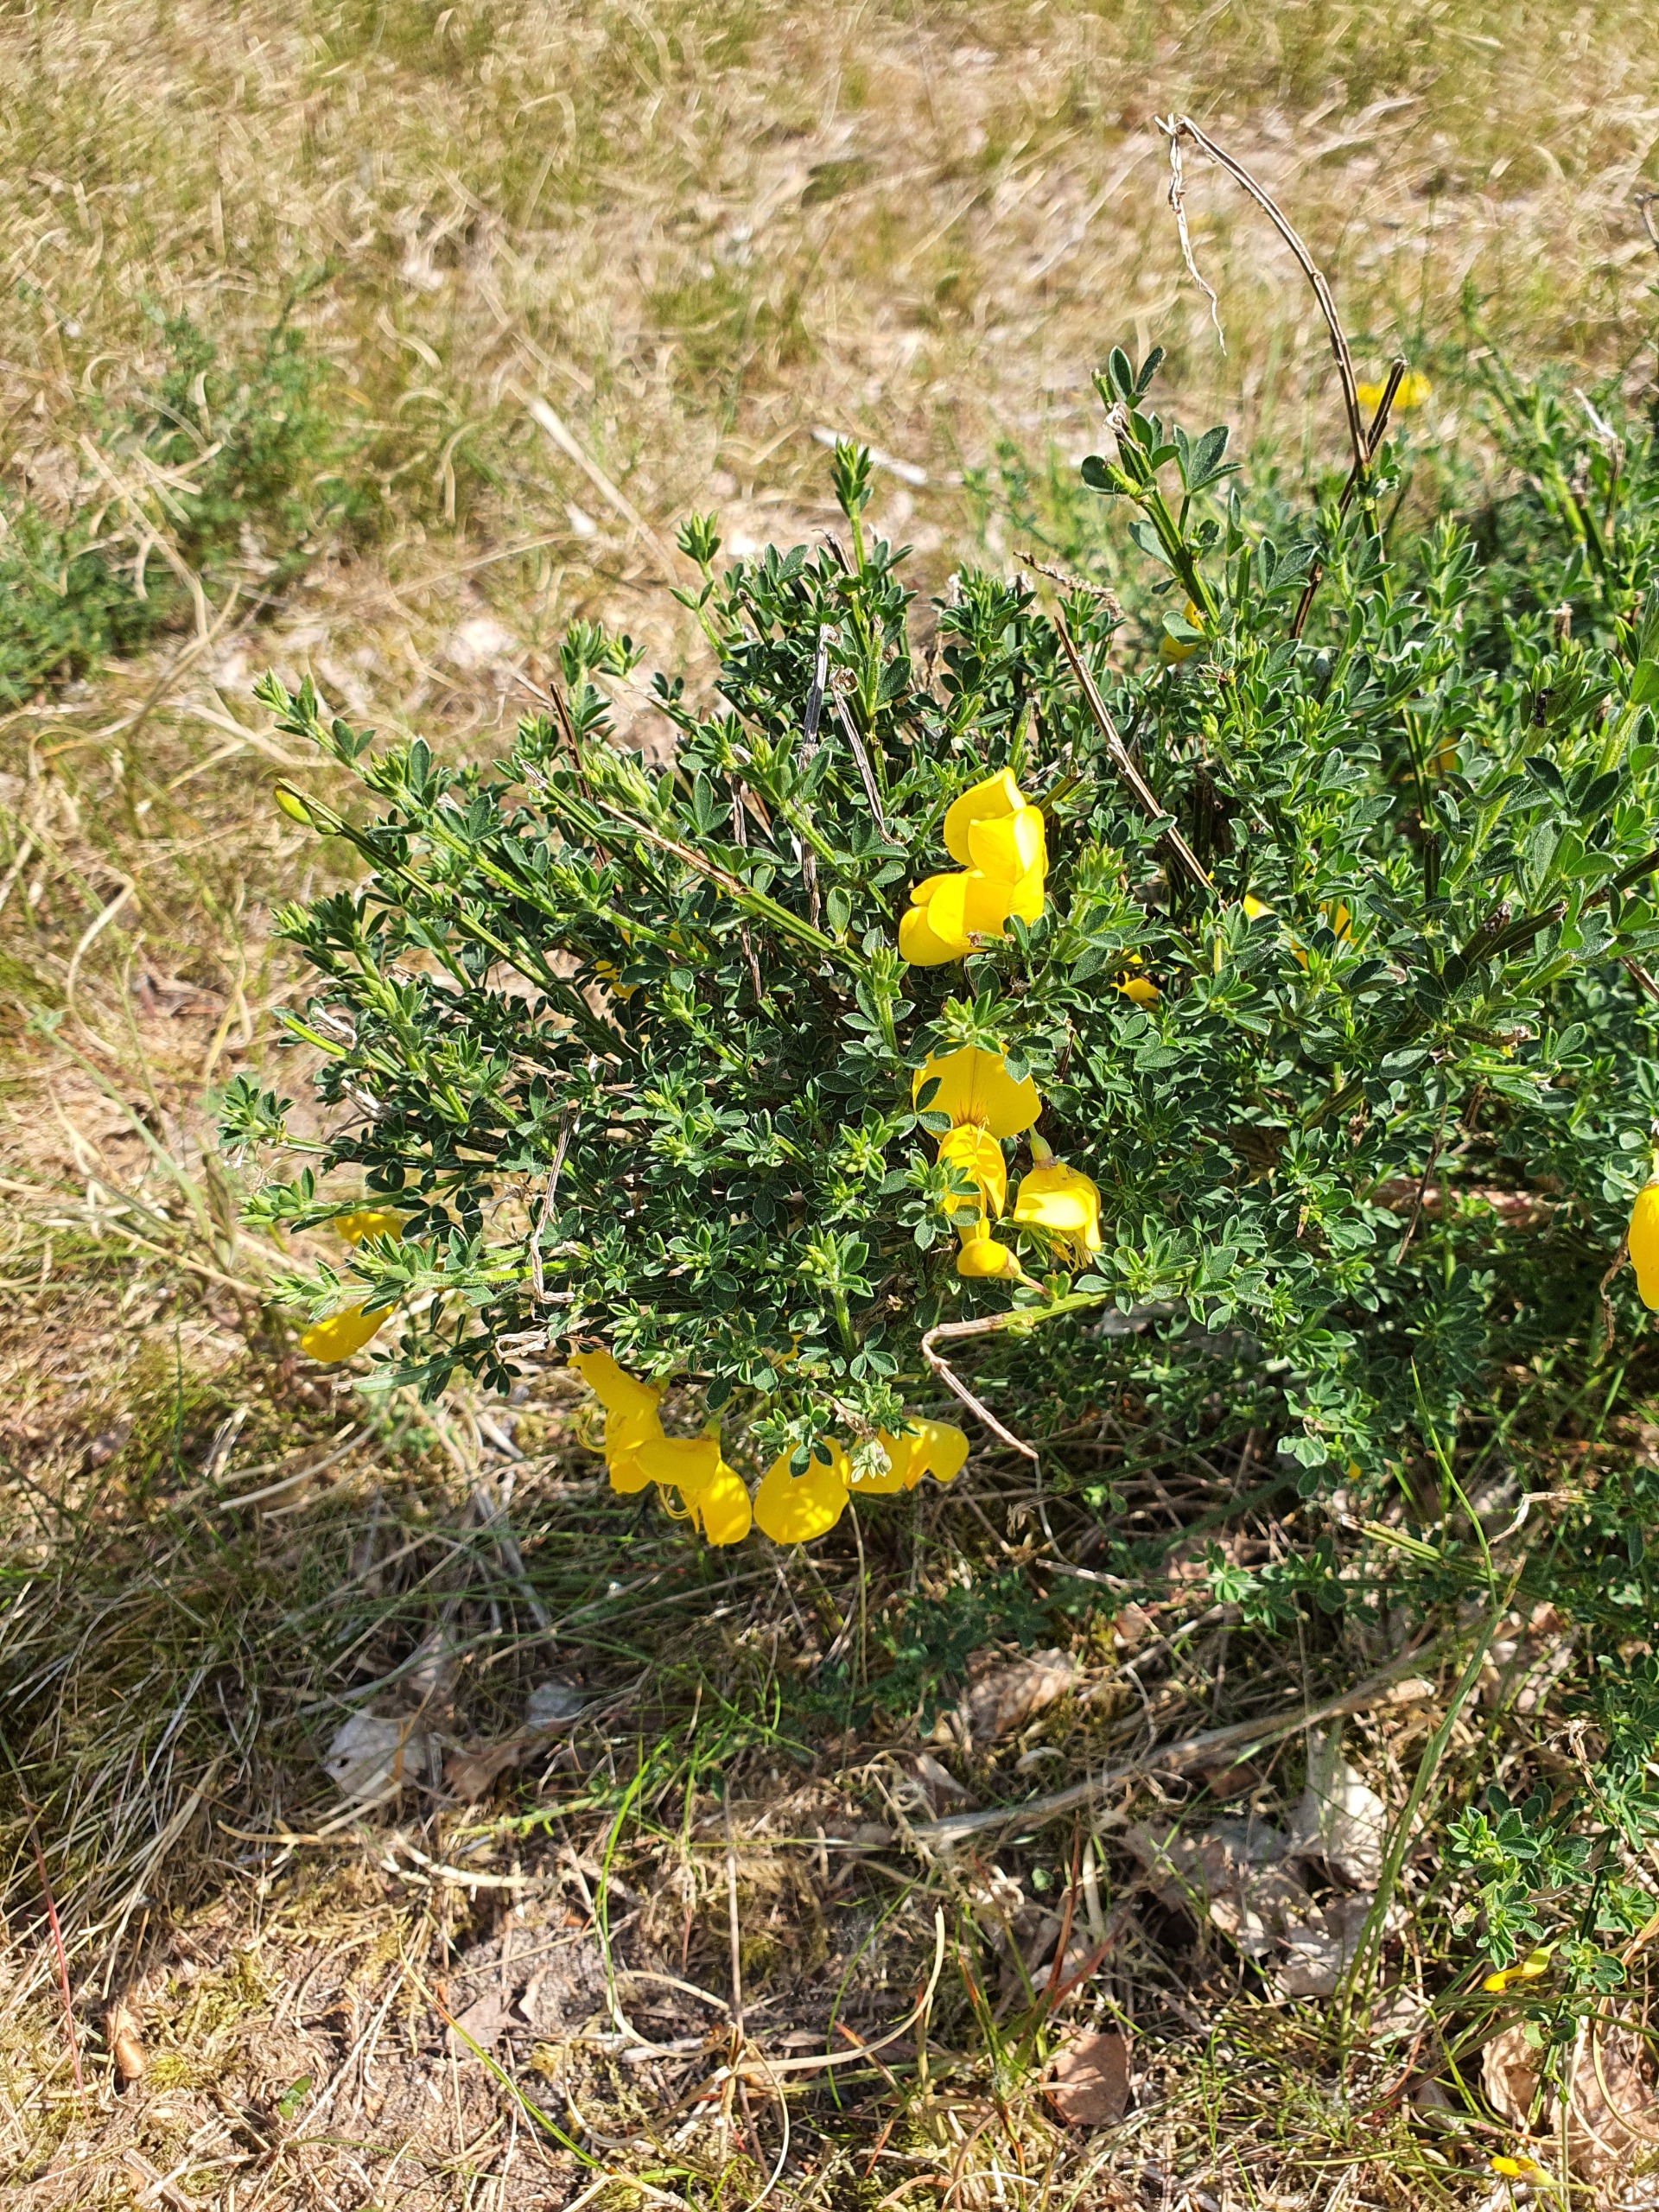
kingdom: Plantae
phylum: Tracheophyta
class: Magnoliopsida
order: Fabales
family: Fabaceae
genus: Cytisus
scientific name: Cytisus scoparius
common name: Almindelig gyvel
